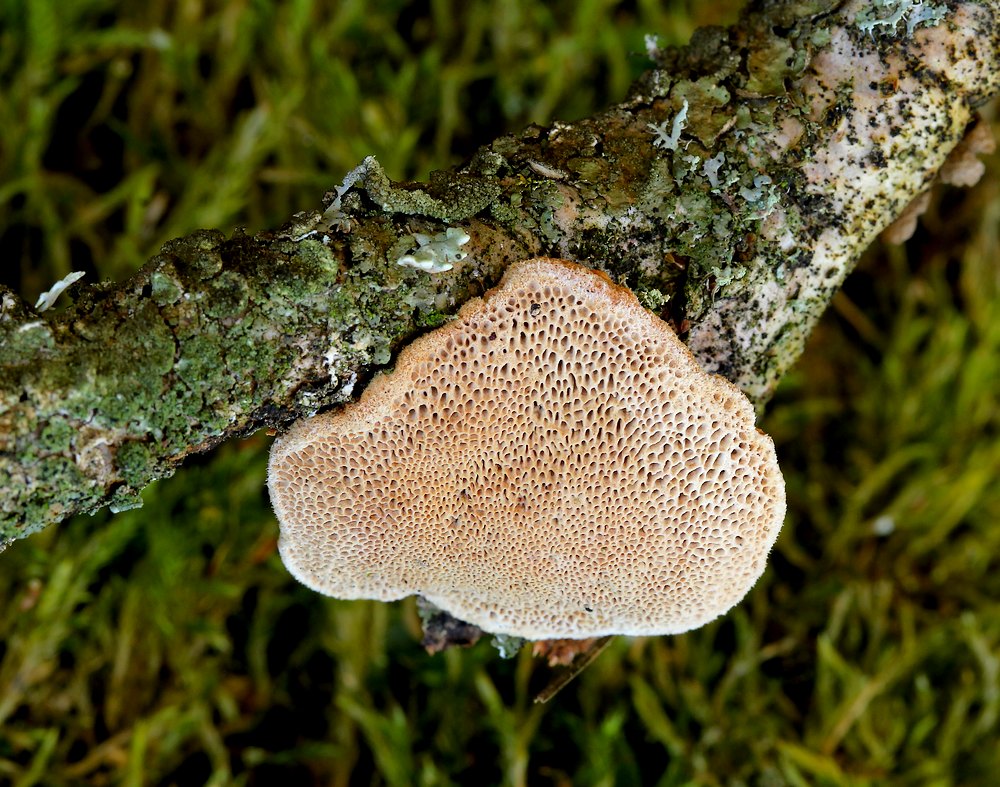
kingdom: Fungi
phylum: Basidiomycota
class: Agaricomycetes
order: Polyporales
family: Phanerochaetaceae
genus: Hapalopilus
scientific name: Hapalopilus rutilans
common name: rødlig okkerporesvamp
